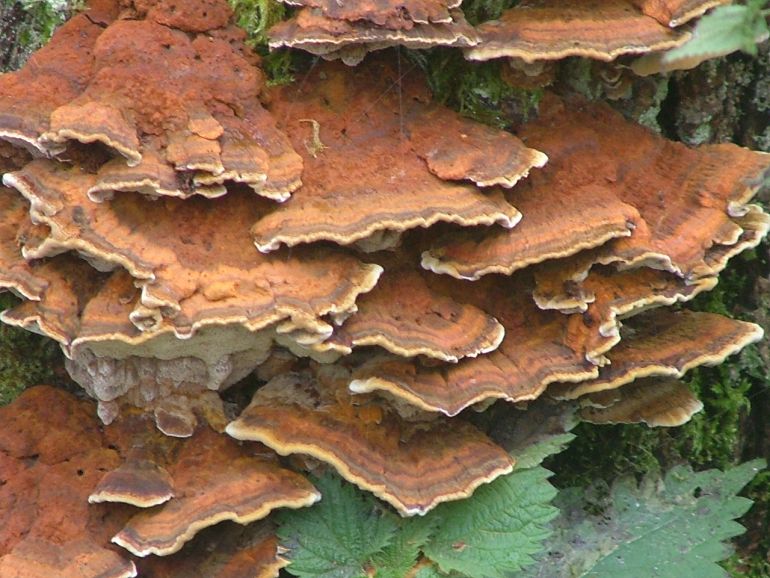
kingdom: Fungi
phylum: Basidiomycota
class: Agaricomycetes
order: Hymenochaetales
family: Hymenochaetaceae
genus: Xanthoporia
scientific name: Xanthoporia radiata
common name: elle-spejlporesvamp
